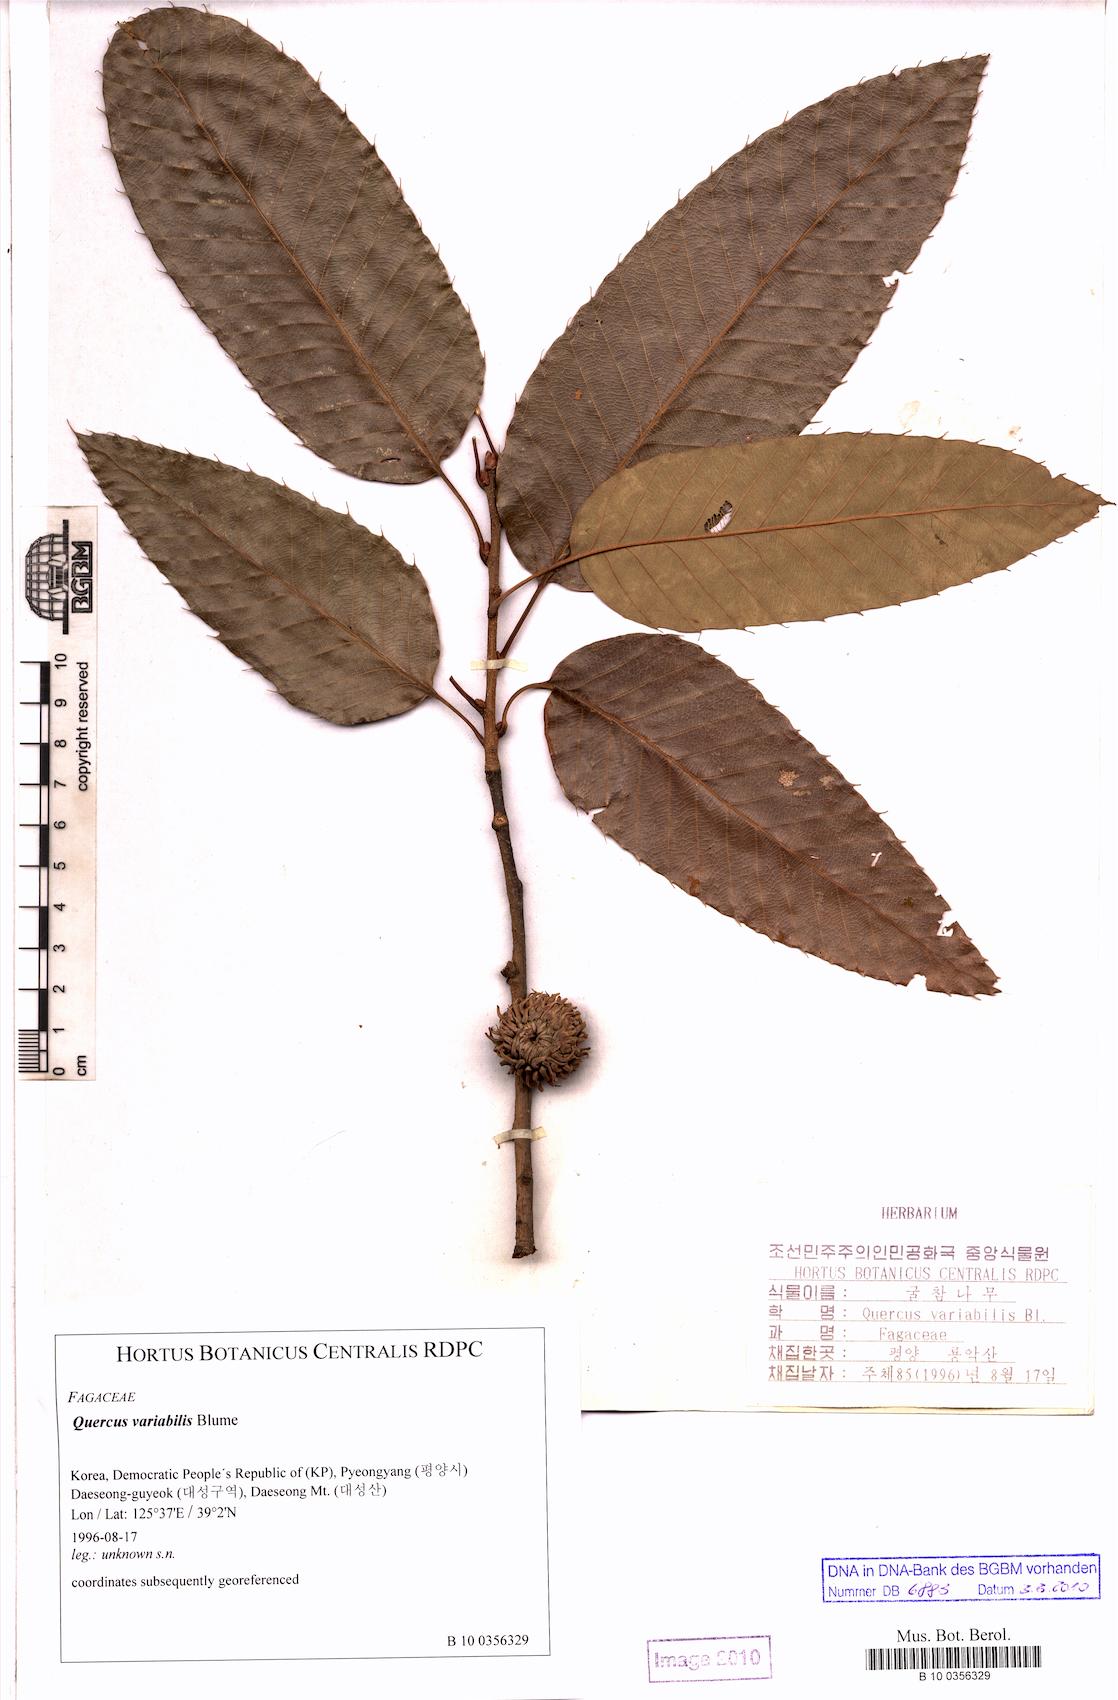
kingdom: Plantae
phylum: Tracheophyta
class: Magnoliopsida
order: Fagales
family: Fagaceae
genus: Quercus
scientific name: Quercus variabilis
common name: Chinese cork oak
